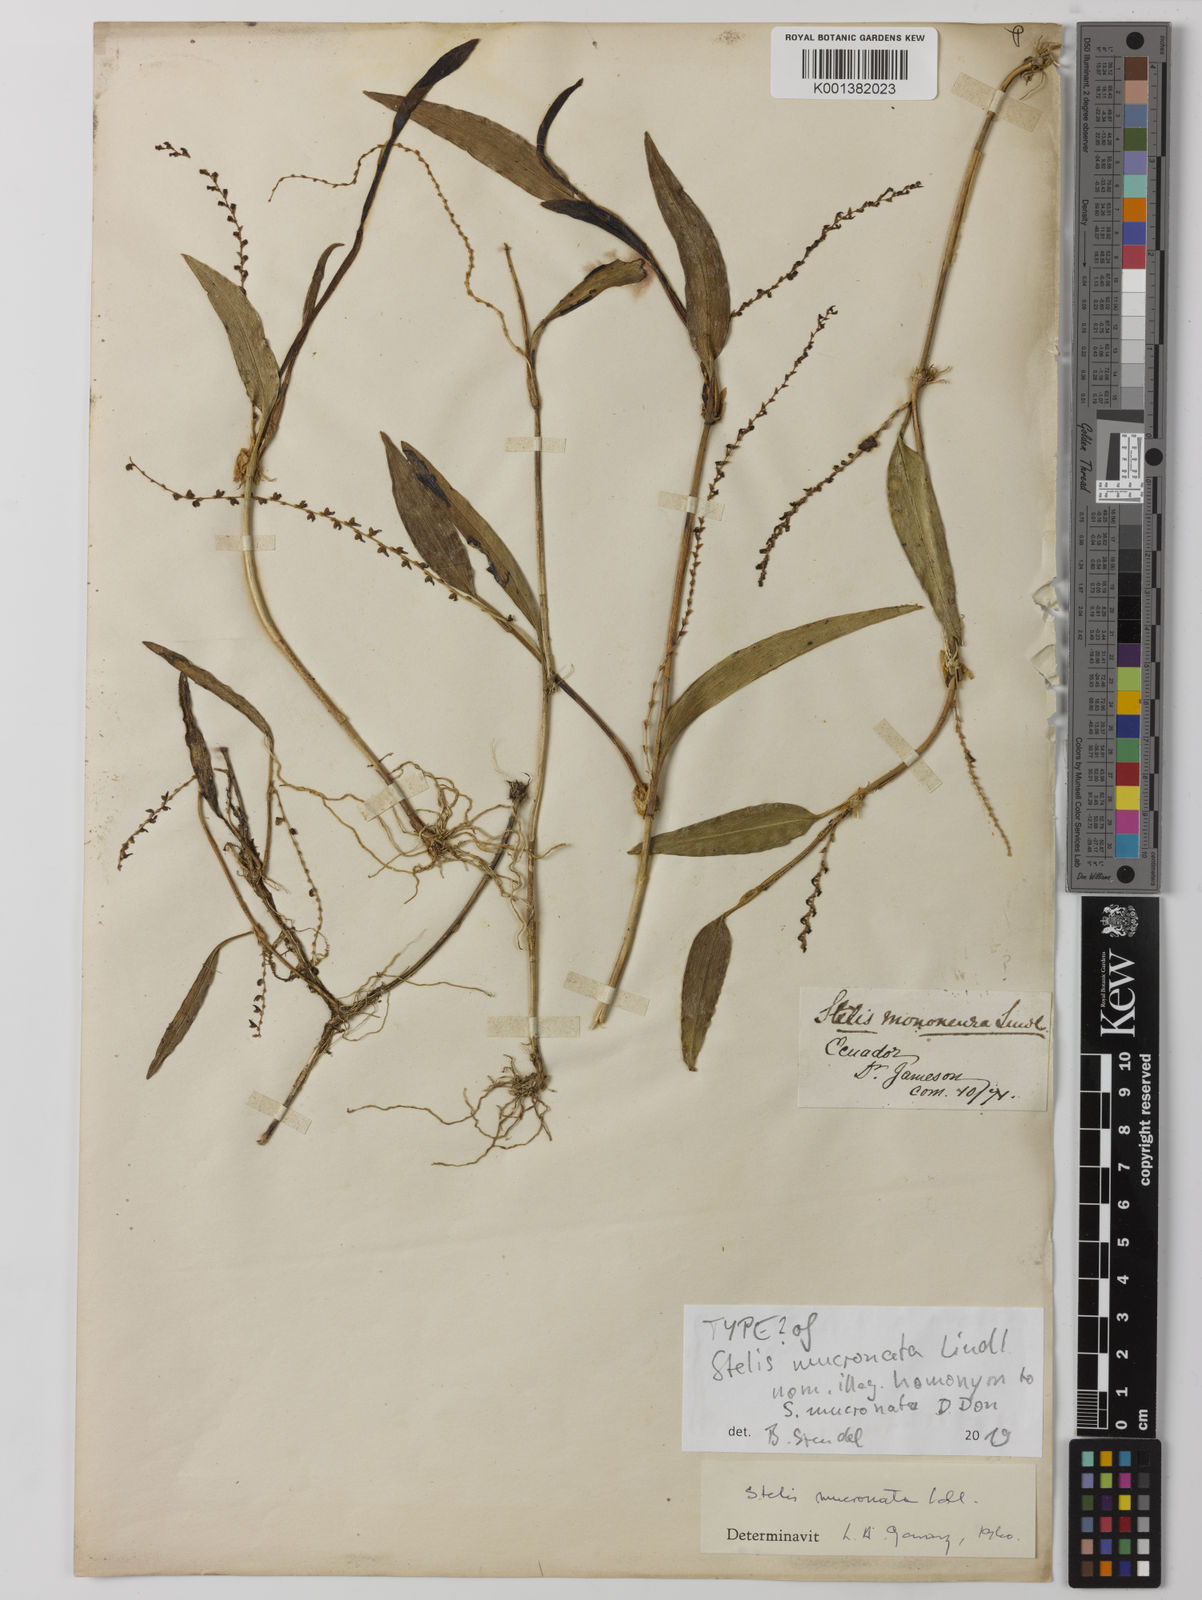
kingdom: Plantae
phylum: Tracheophyta
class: Liliopsida
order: Asparagales
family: Orchidaceae
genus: Stelis
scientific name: Stelis mucronella
